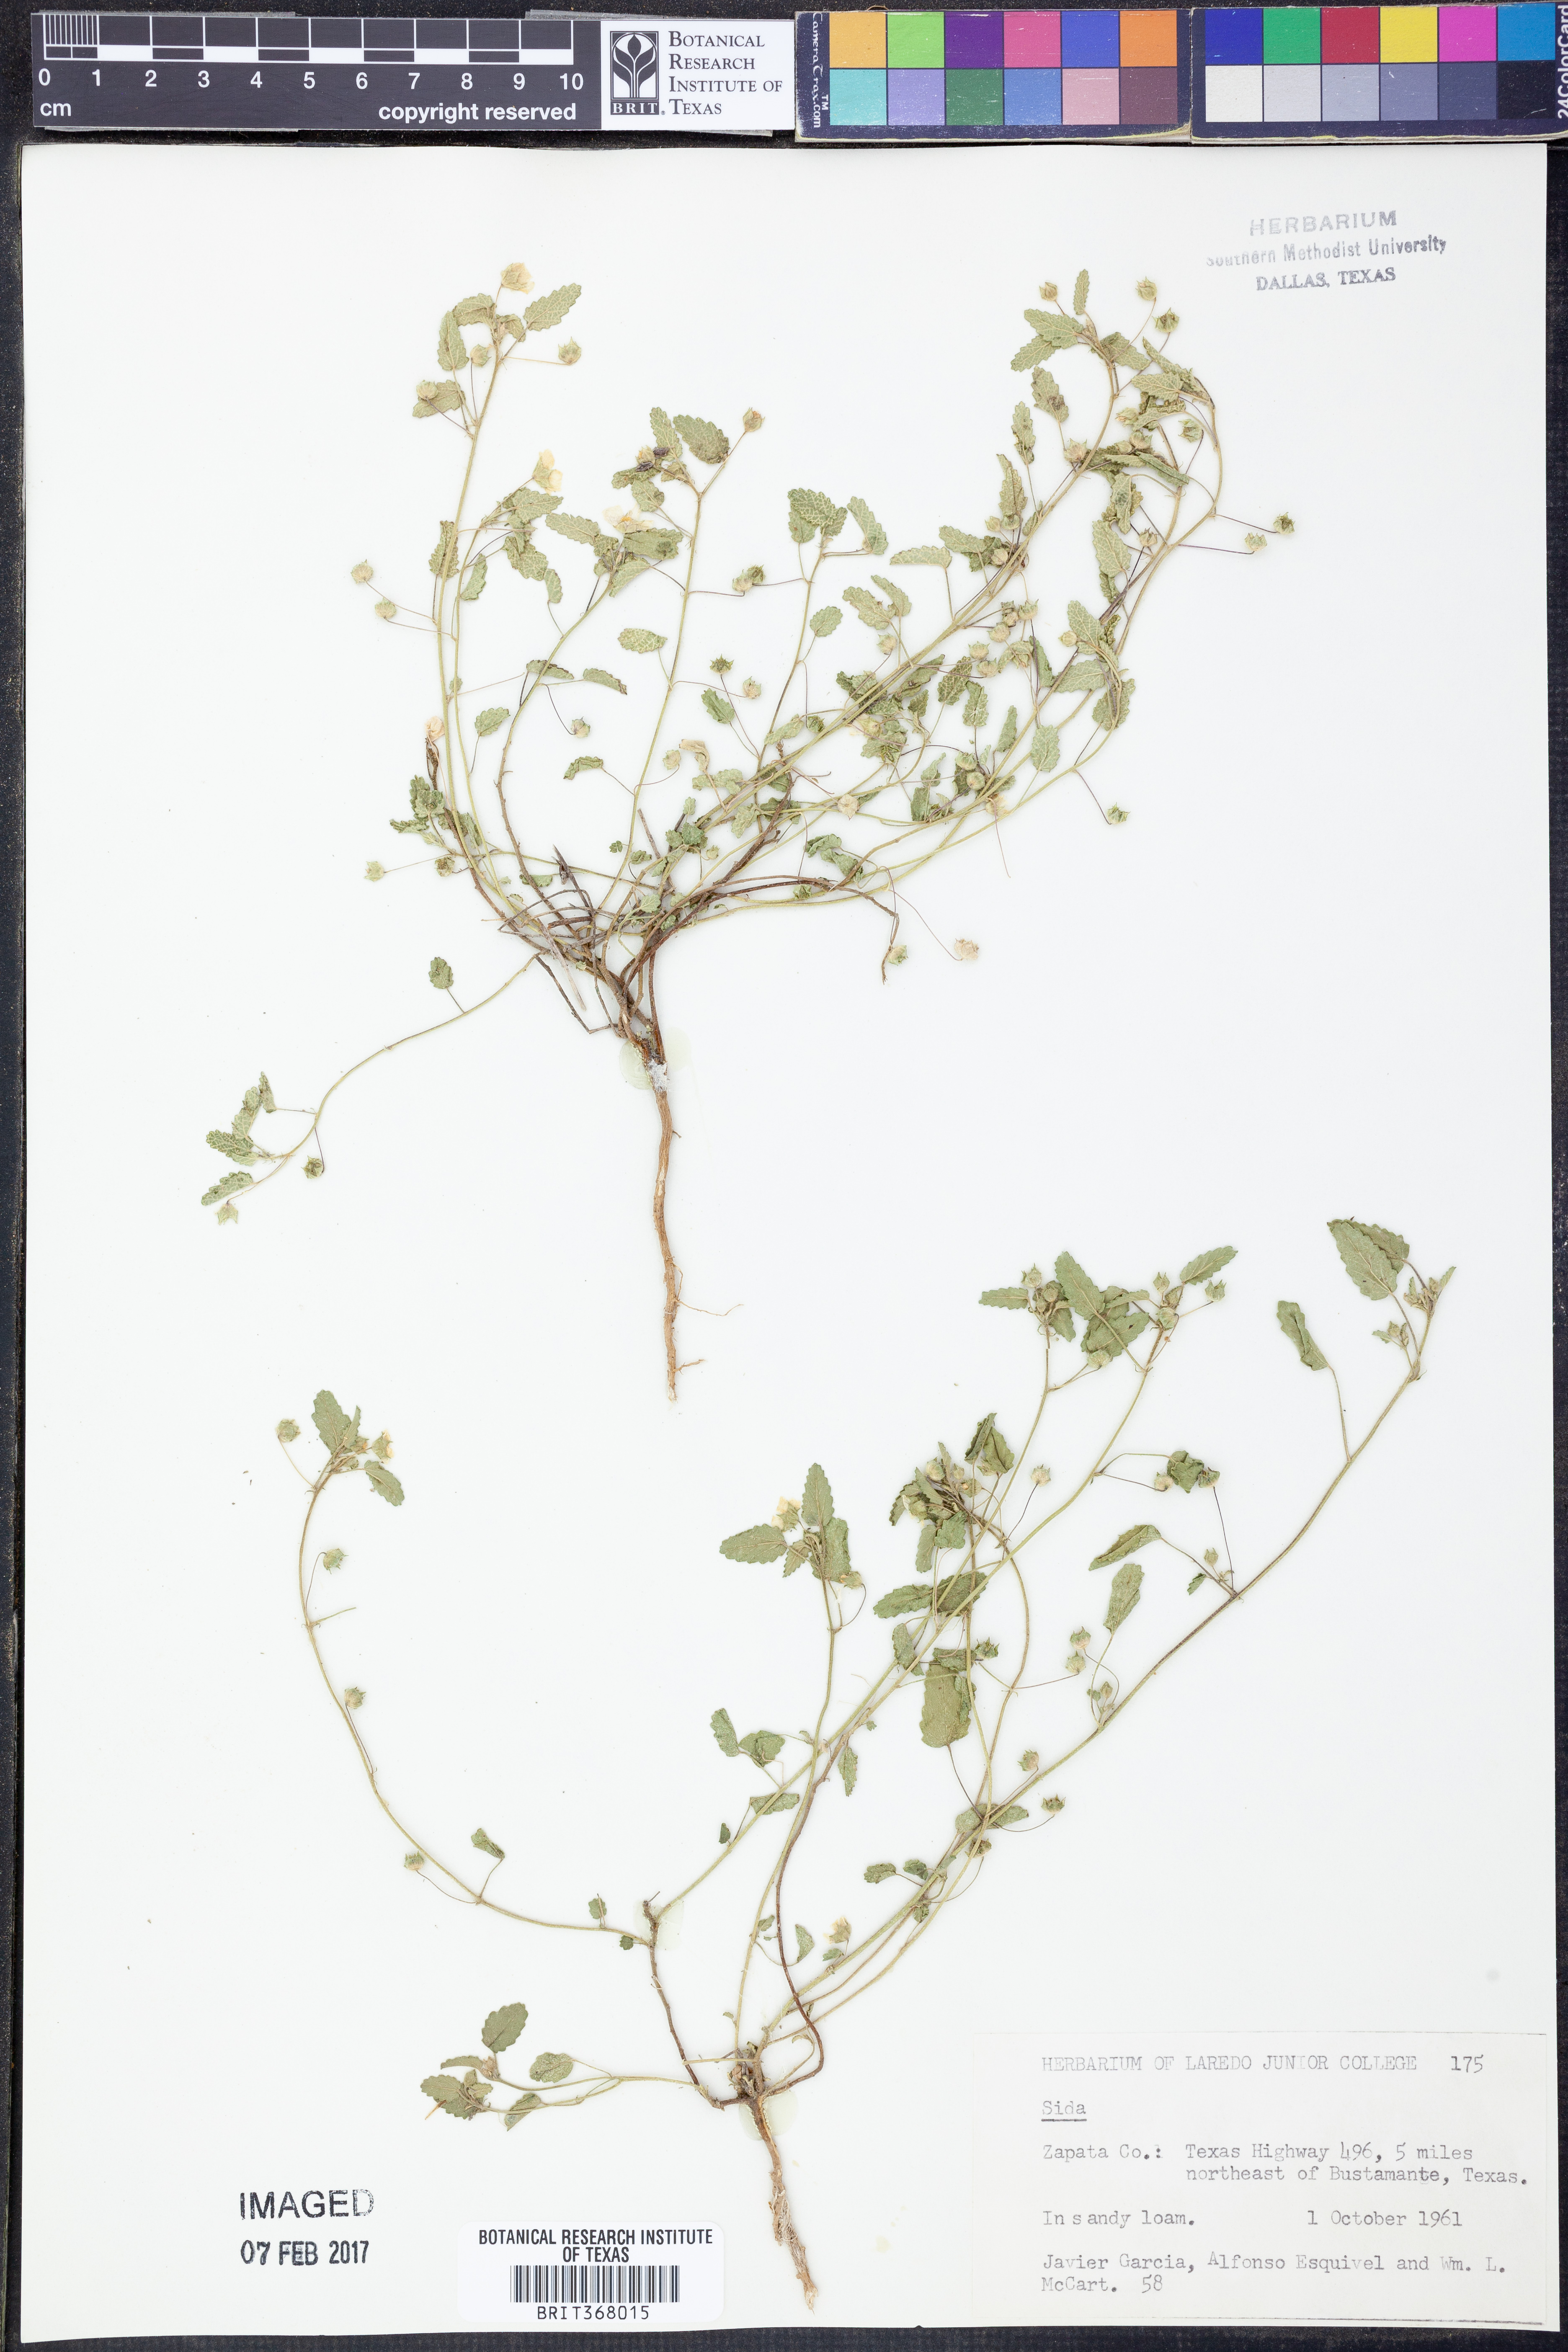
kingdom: Plantae
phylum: Tracheophyta
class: Magnoliopsida
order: Malvales
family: Malvaceae
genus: Sida
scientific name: Sida
